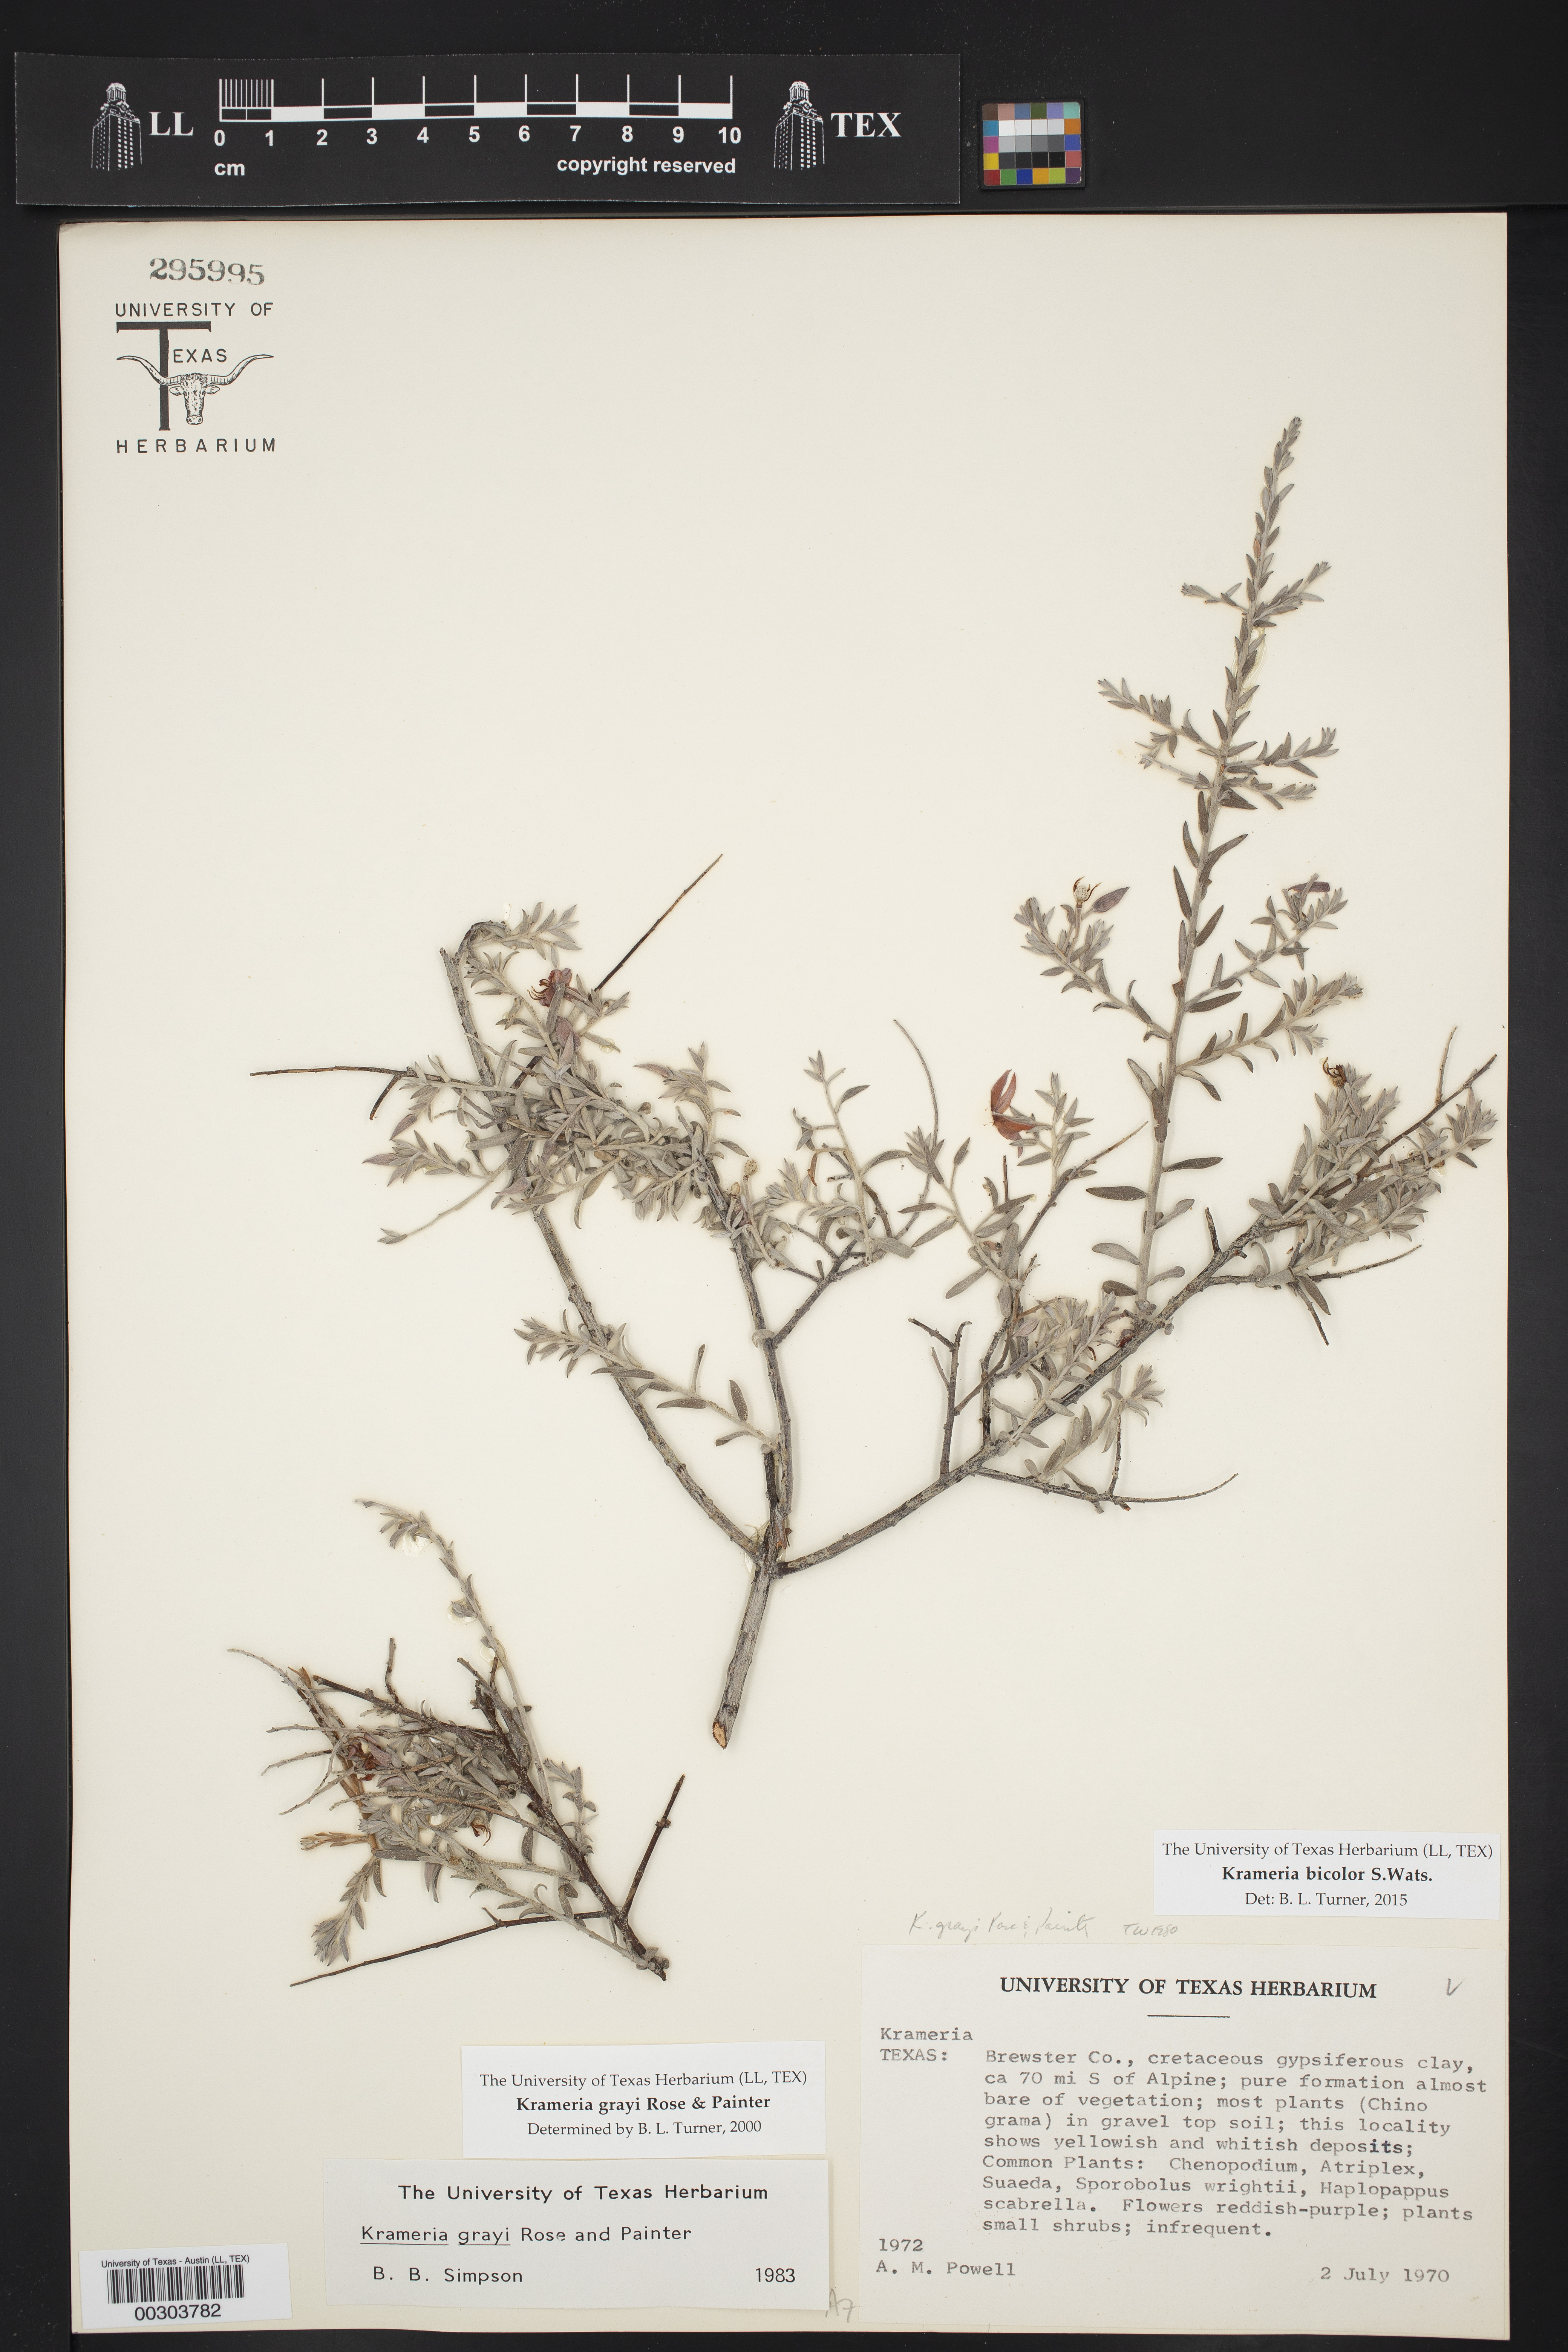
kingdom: Plantae
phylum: Tracheophyta
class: Magnoliopsida
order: Zygophyllales
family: Krameriaceae
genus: Krameria
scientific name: Krameria bicolor
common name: White ratany
